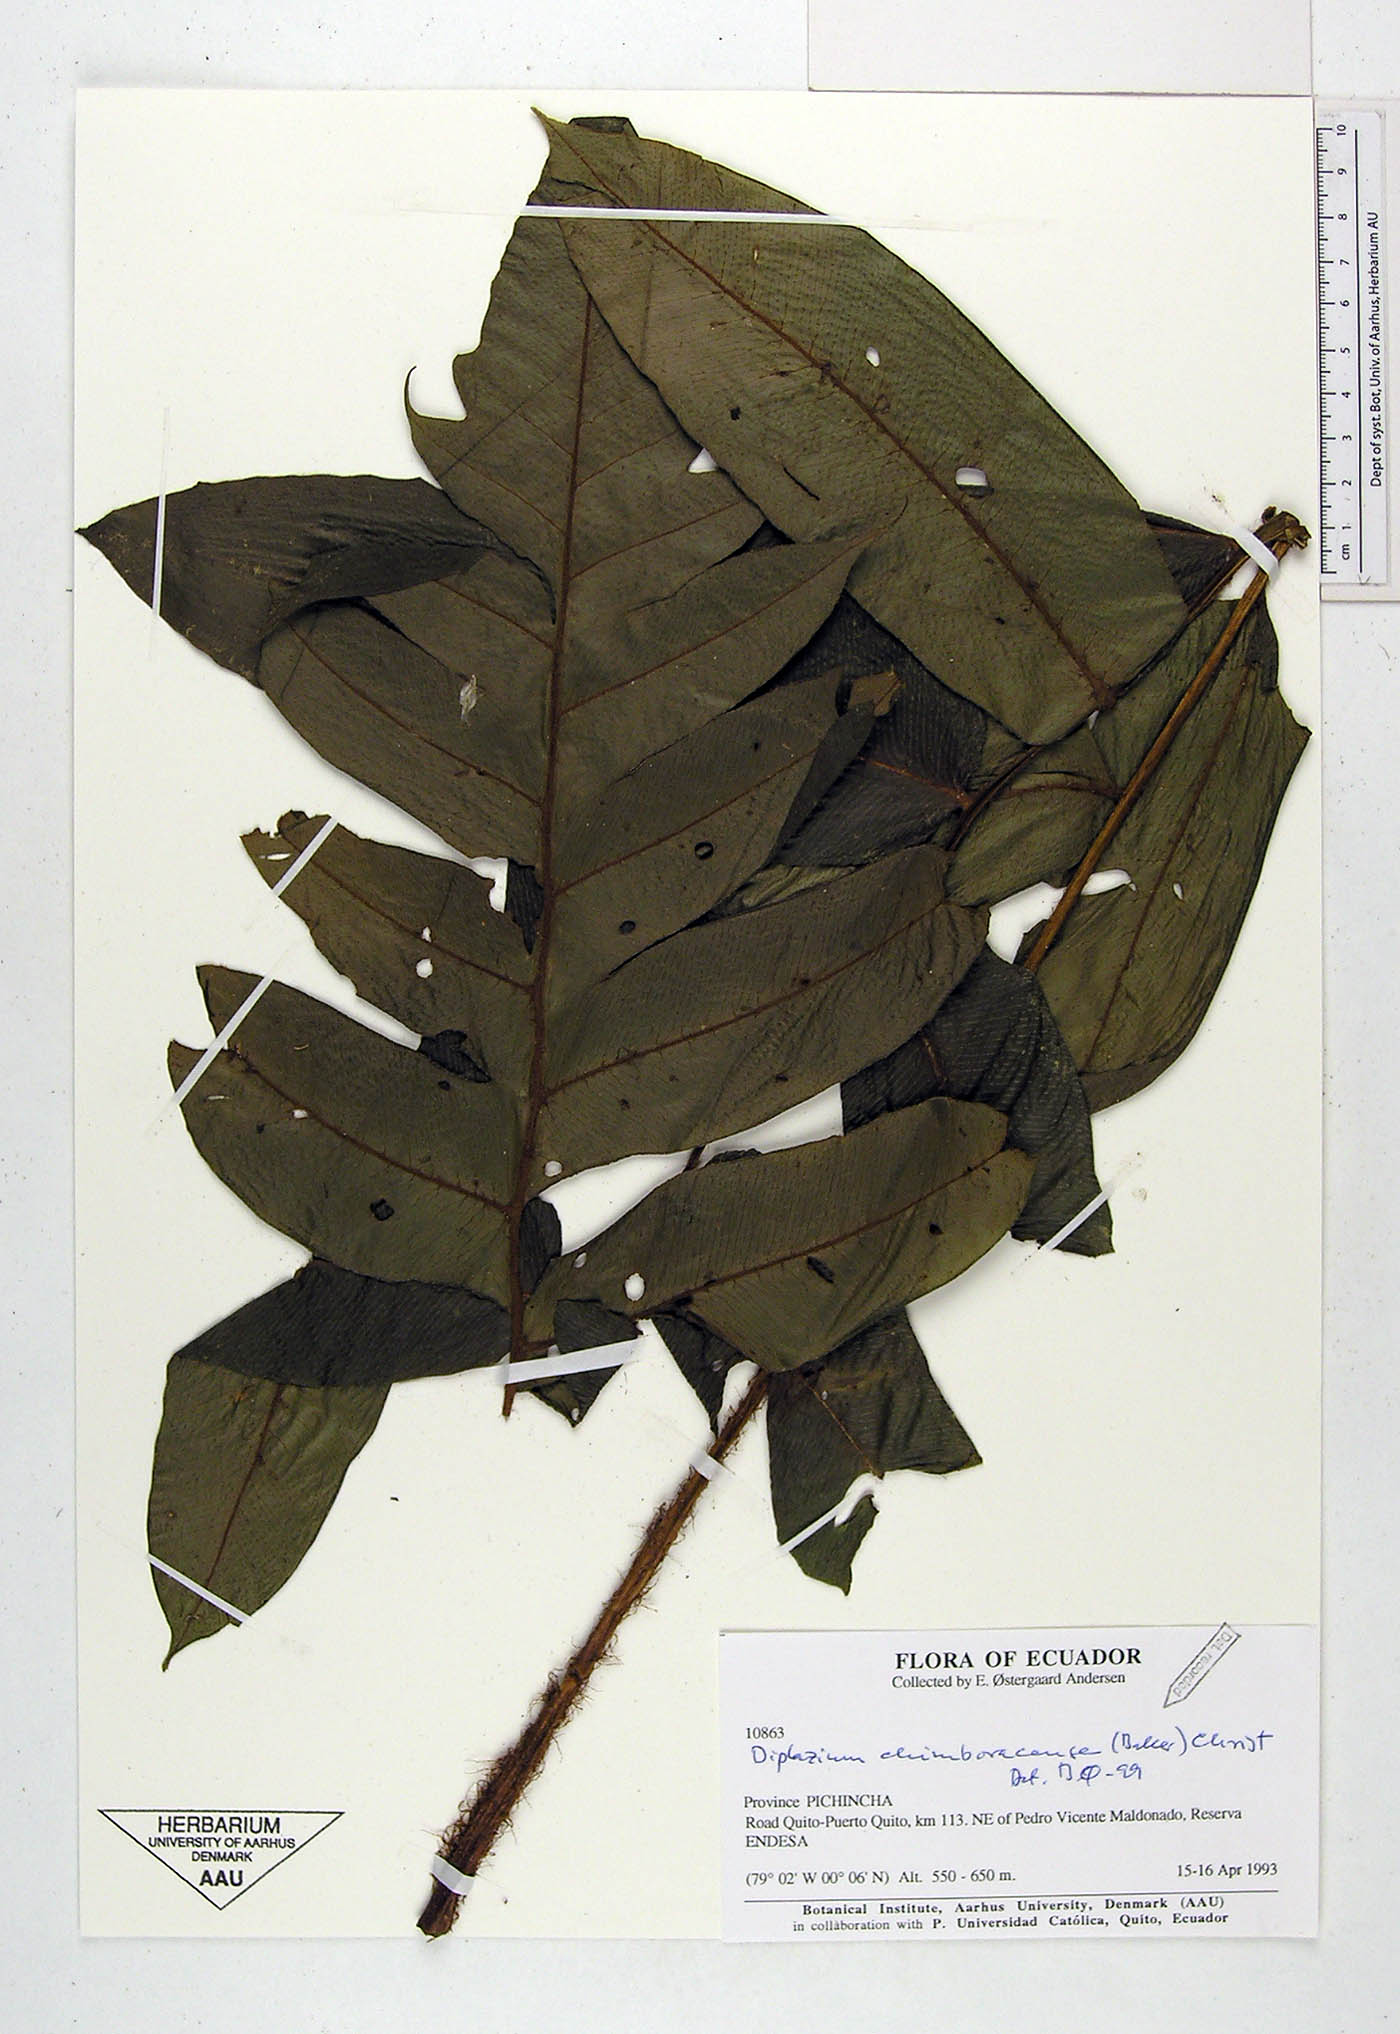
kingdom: Plantae
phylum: Tracheophyta
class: Polypodiopsida
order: Polypodiales
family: Athyriaceae
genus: Diplazium
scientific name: Diplazium chimborazense
